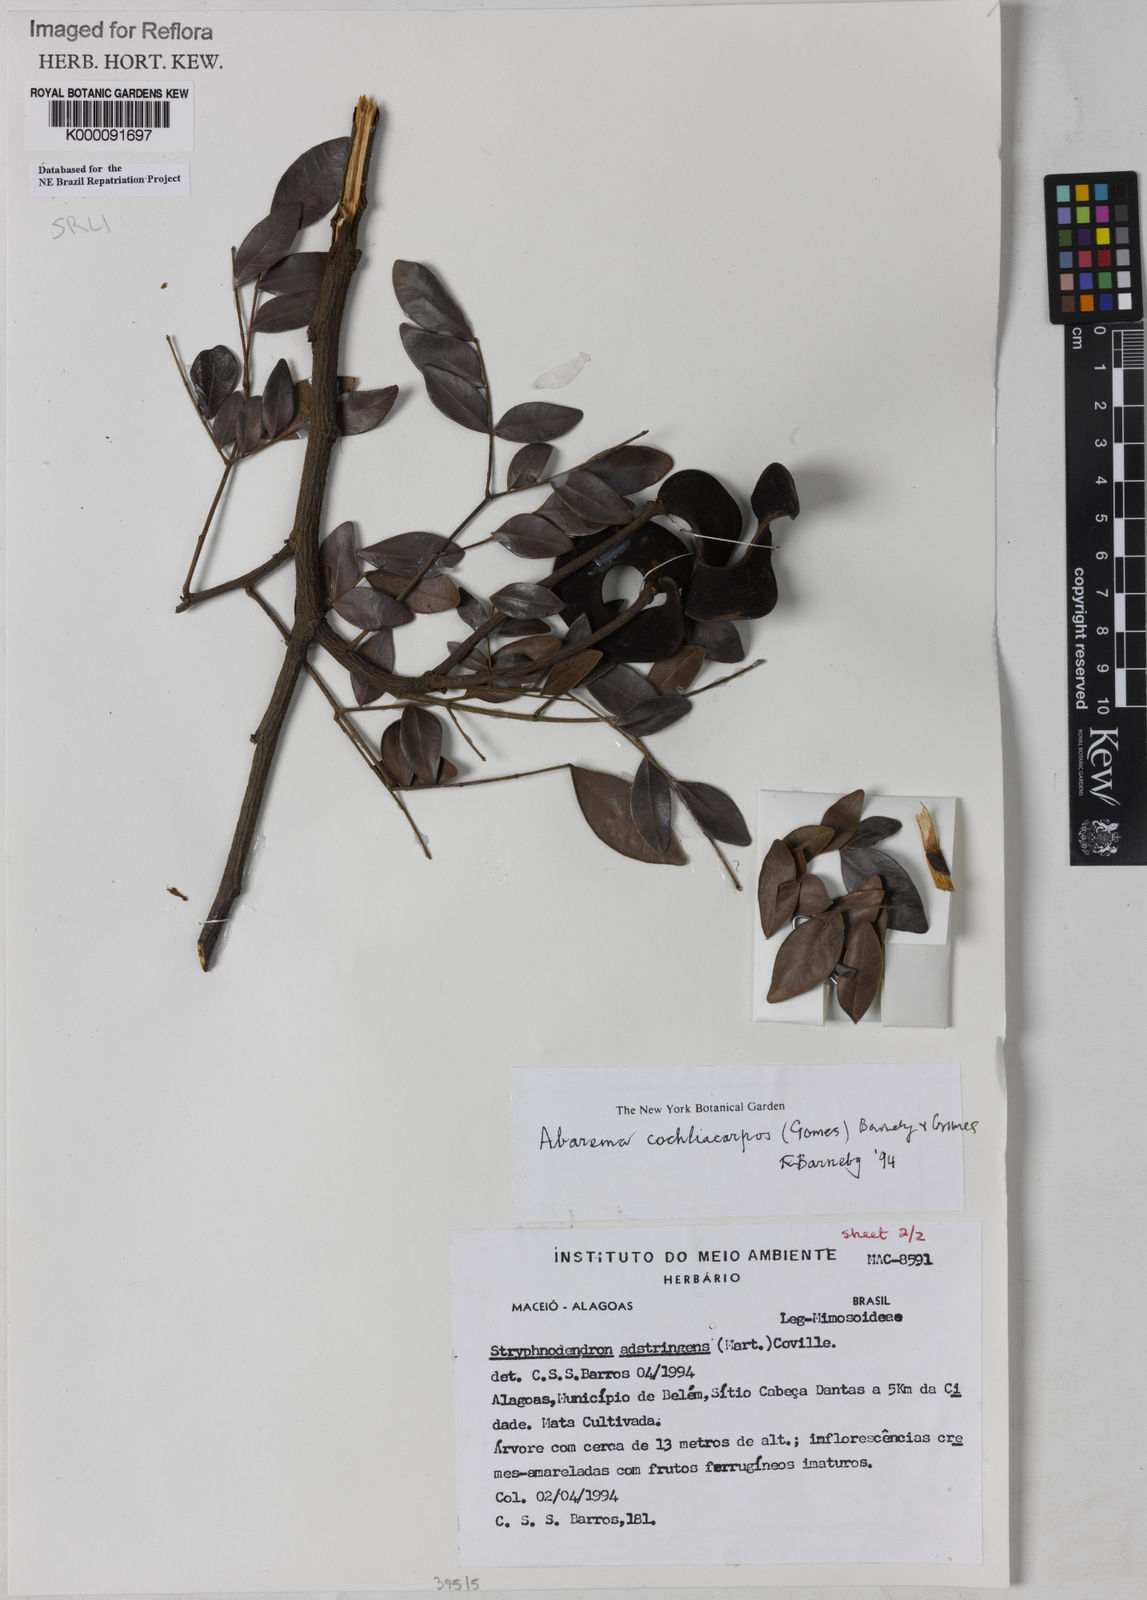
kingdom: Plantae
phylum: Tracheophyta
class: Magnoliopsida
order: Fabales
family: Fabaceae
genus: Abarema
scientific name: Abarema
